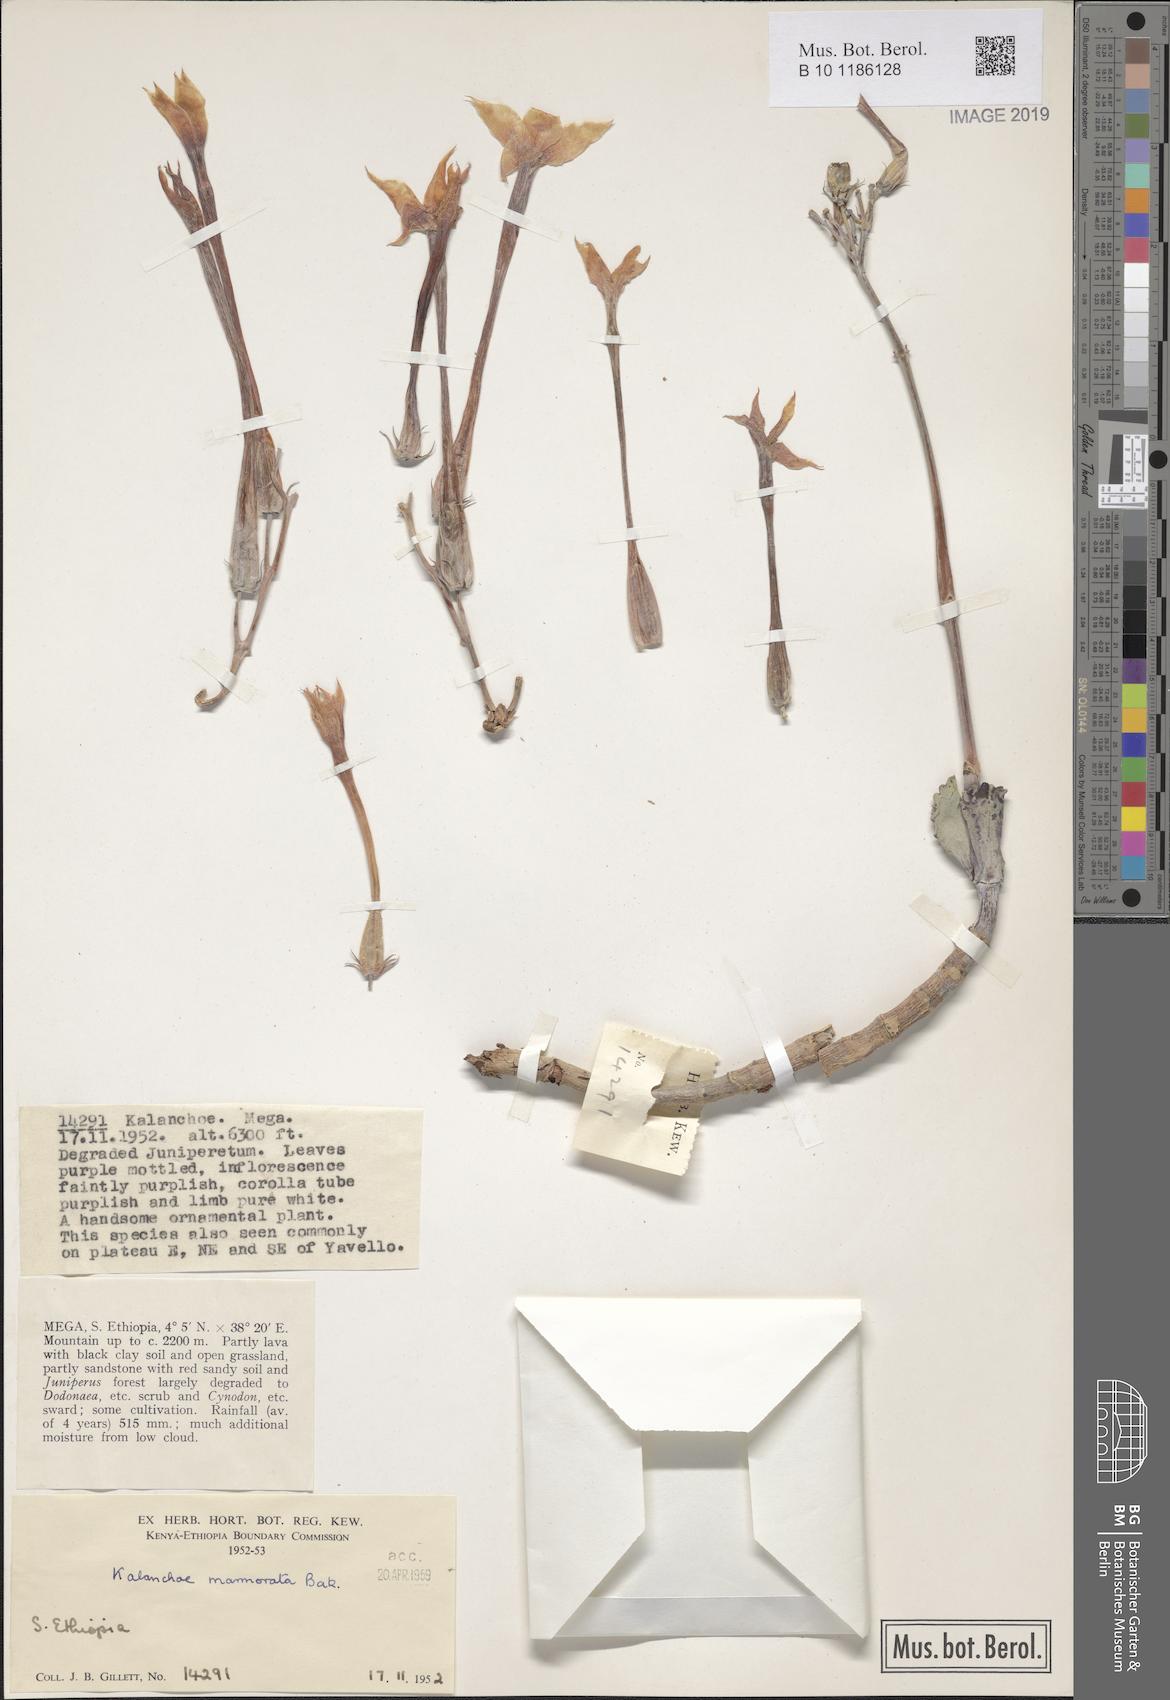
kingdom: Plantae
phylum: Tracheophyta
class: Magnoliopsida
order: Saxifragales
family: Crassulaceae
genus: Kalanchoe
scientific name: Kalanchoe marmorata
